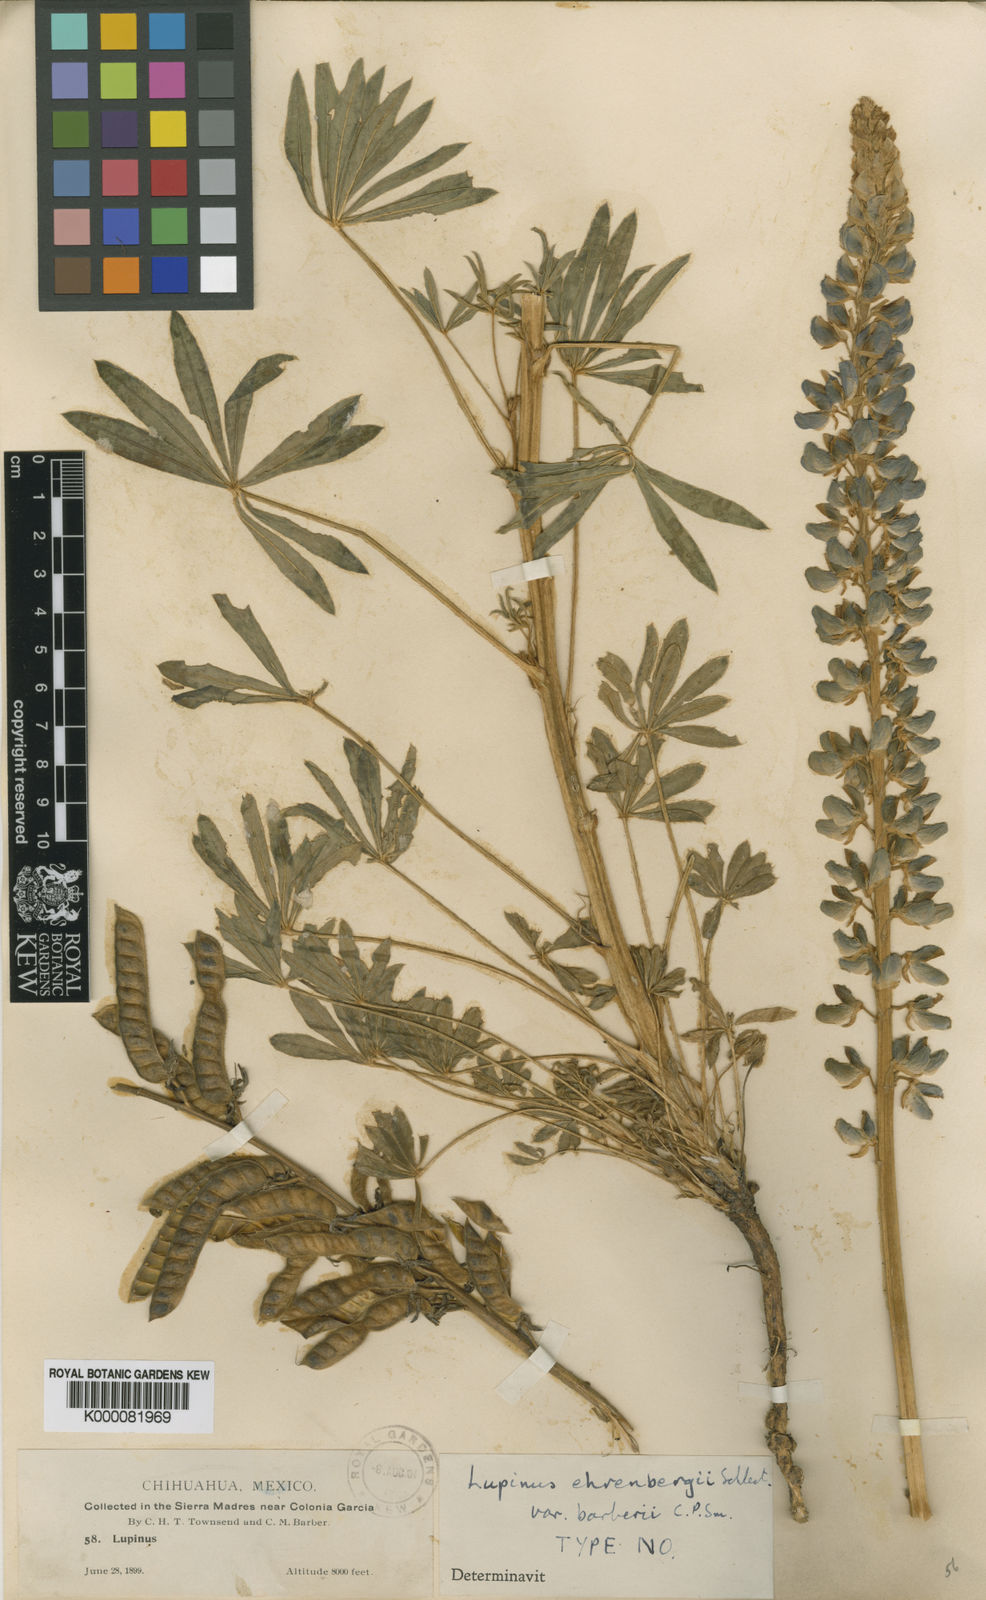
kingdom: Plantae
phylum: Tracheophyta
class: Magnoliopsida
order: Fabales
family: Fabaceae
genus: Lupinus
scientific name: Lupinus
